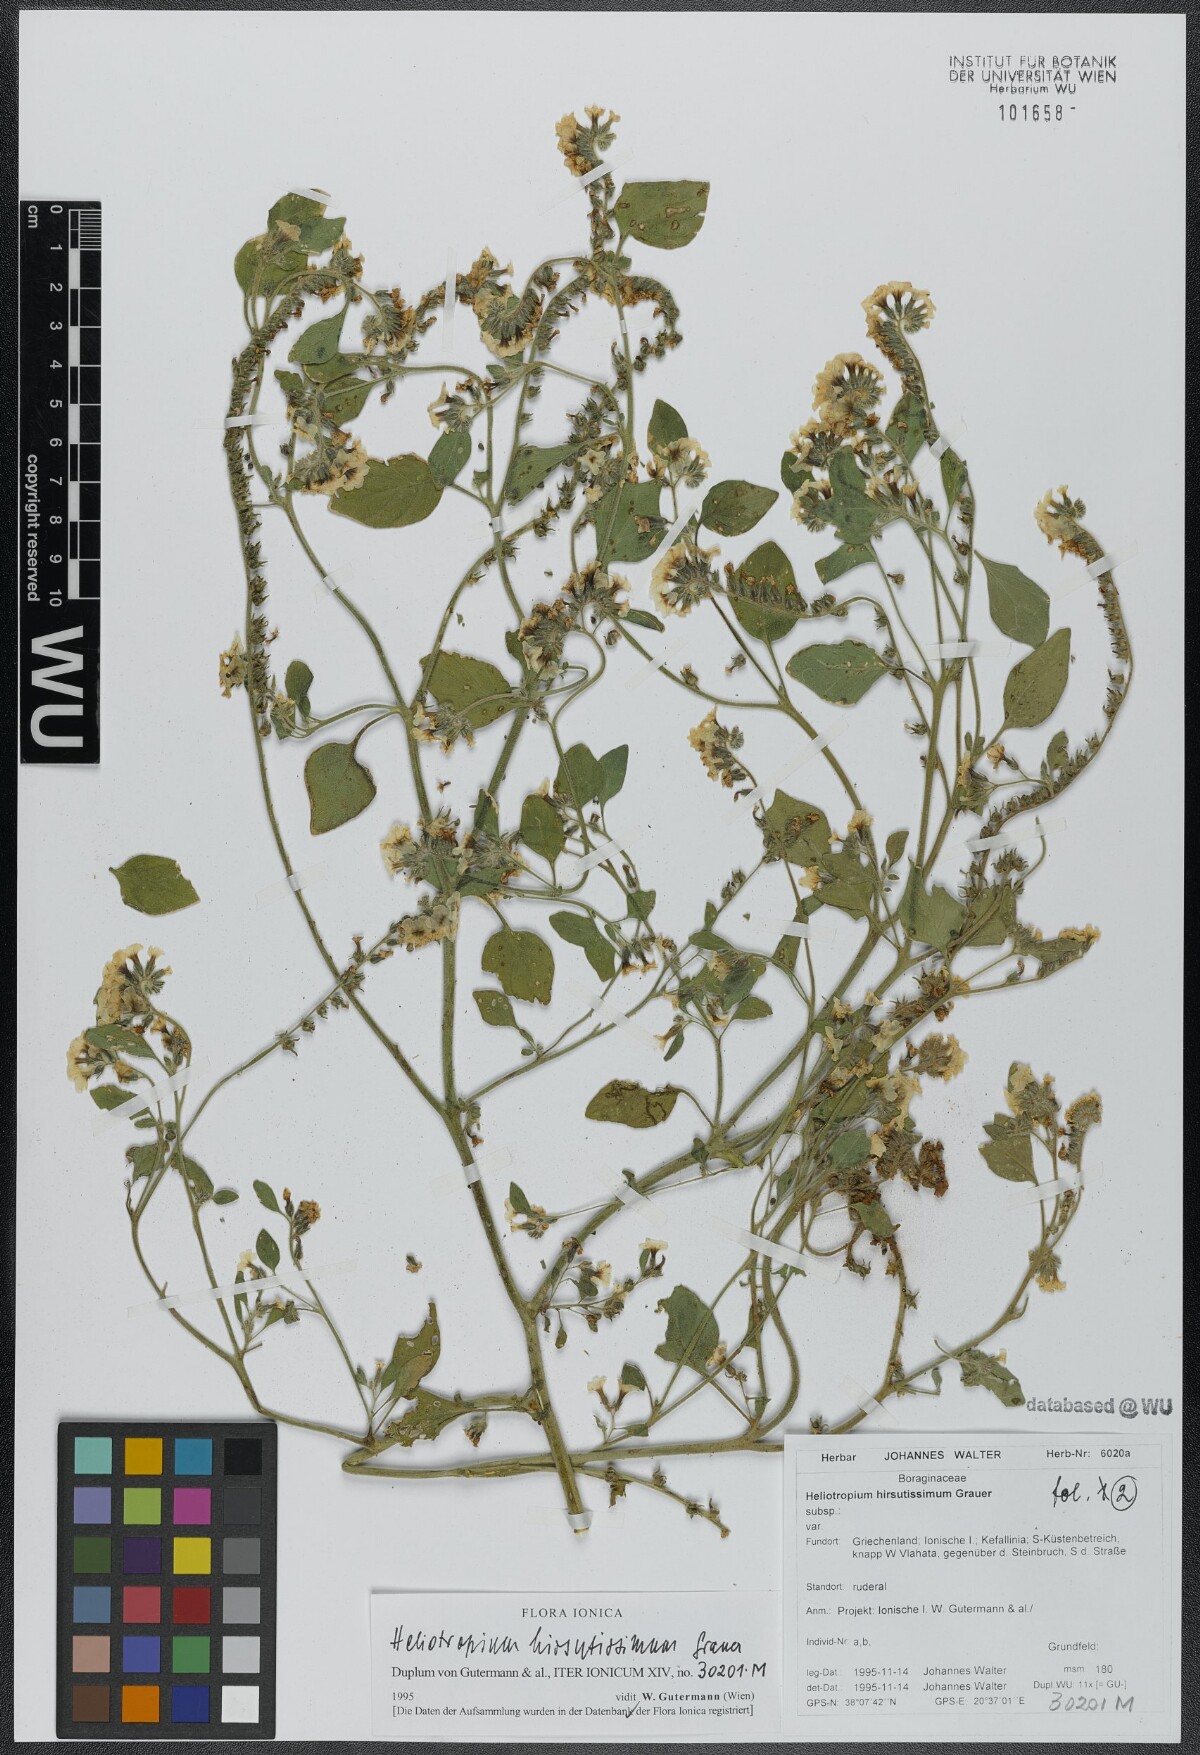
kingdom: Plantae
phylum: Tracheophyta
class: Magnoliopsida
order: Boraginales
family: Heliotropiaceae
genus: Heliotropium
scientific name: Heliotropium steudneri
